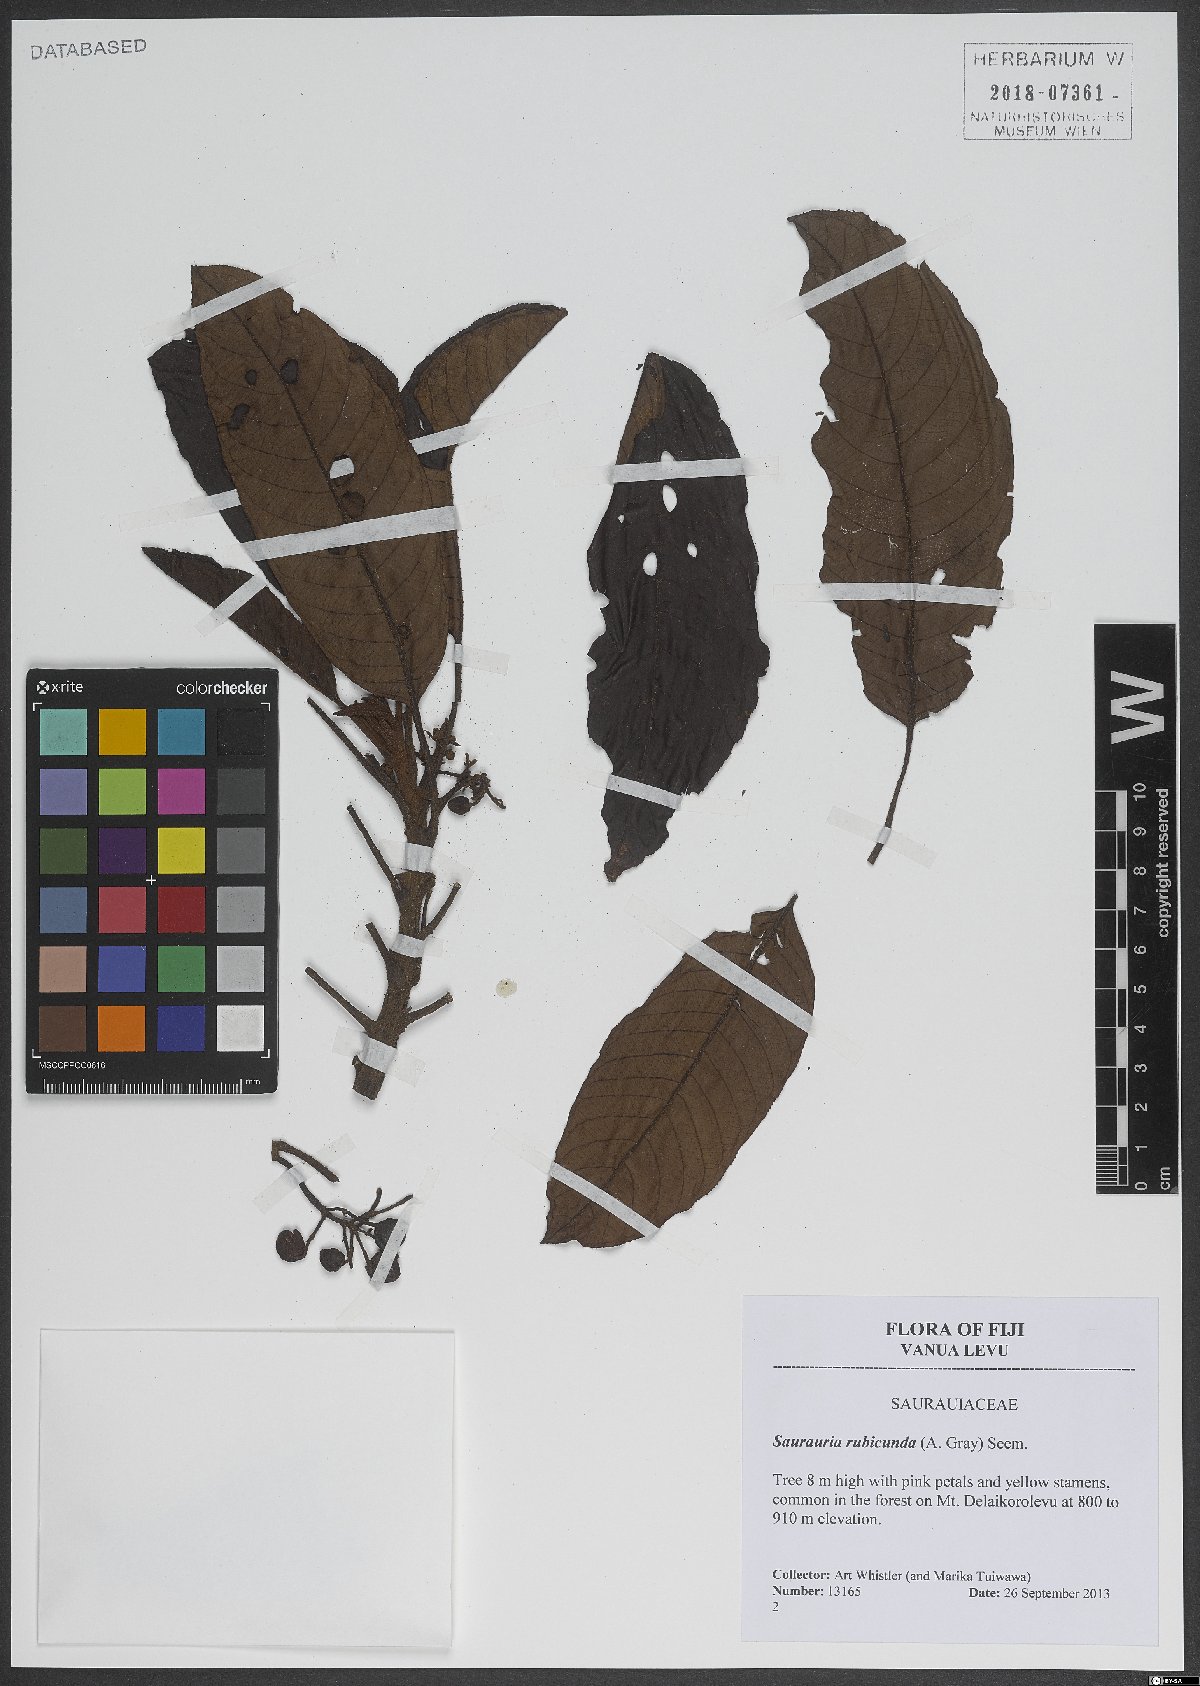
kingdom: Plantae
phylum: Tracheophyta
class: Magnoliopsida
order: Ericales
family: Actinidiaceae
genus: Saurauia
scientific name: Saurauia rubicunda
